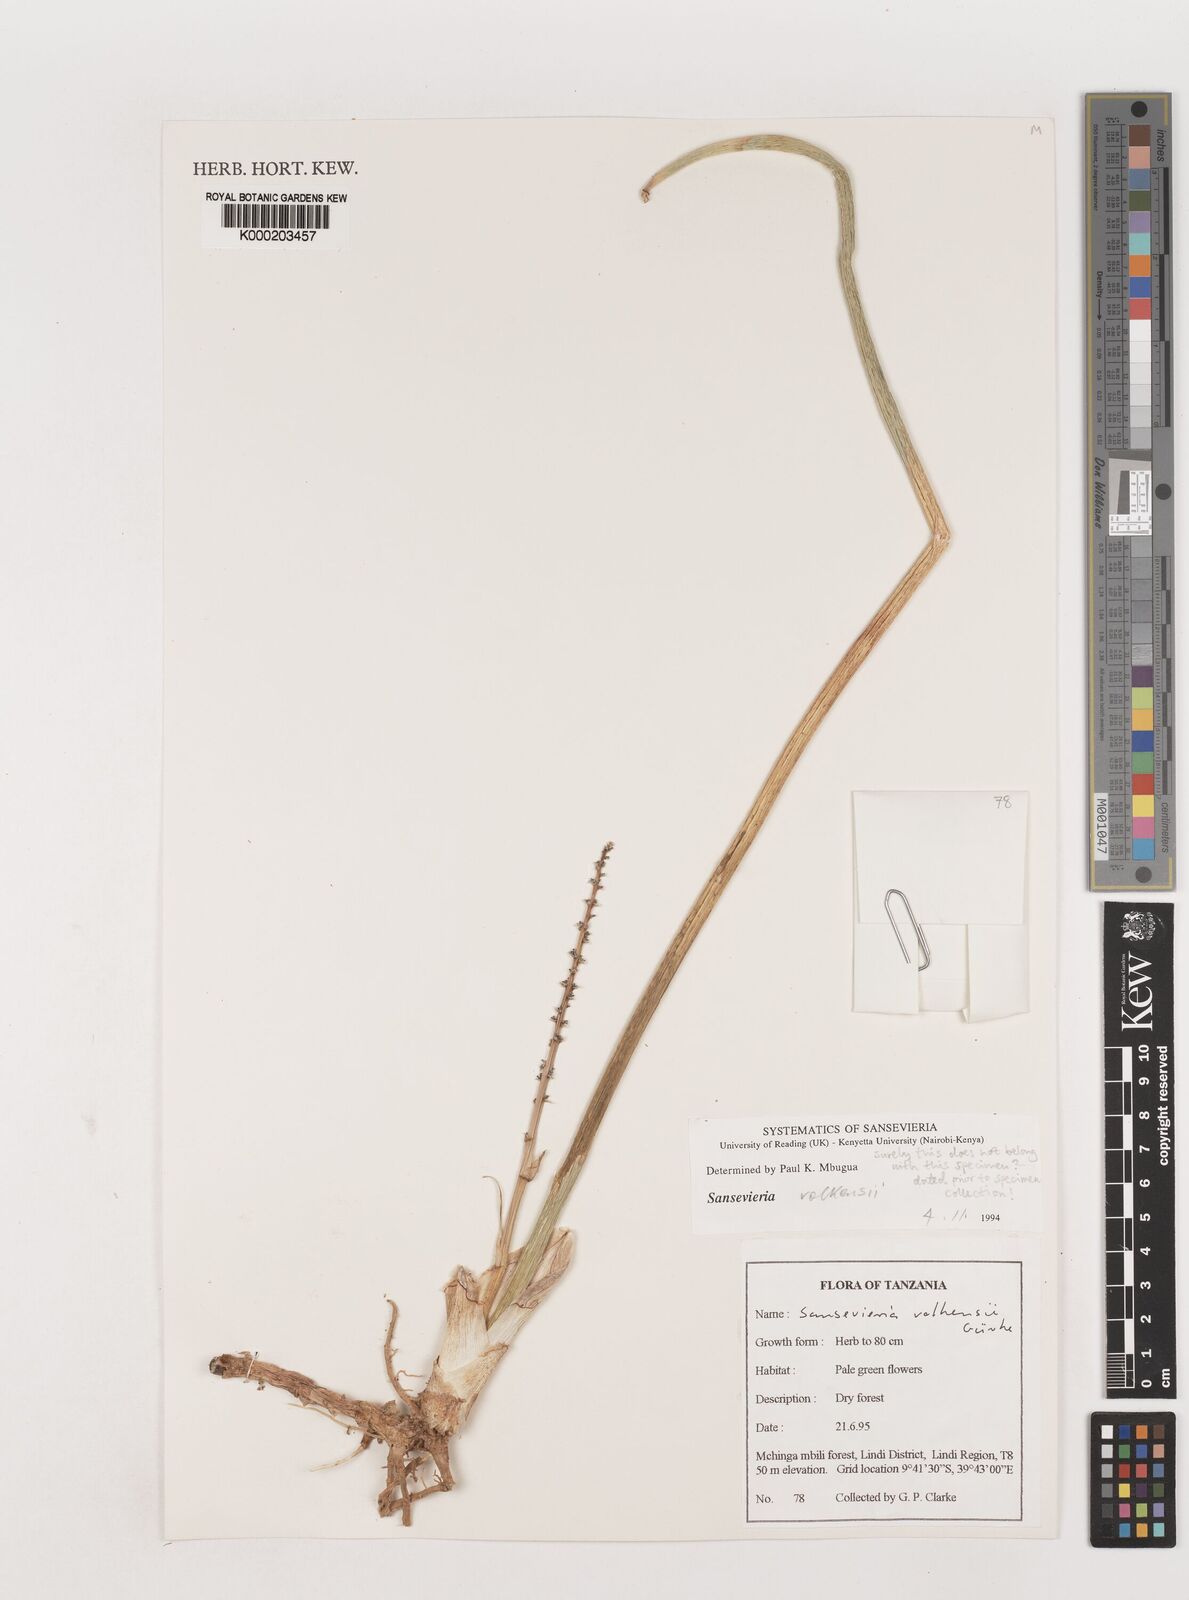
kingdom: Plantae
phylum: Tracheophyta
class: Liliopsida
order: Asparagales
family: Asparagaceae
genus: Dracaena
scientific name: Dracaena volkensii
